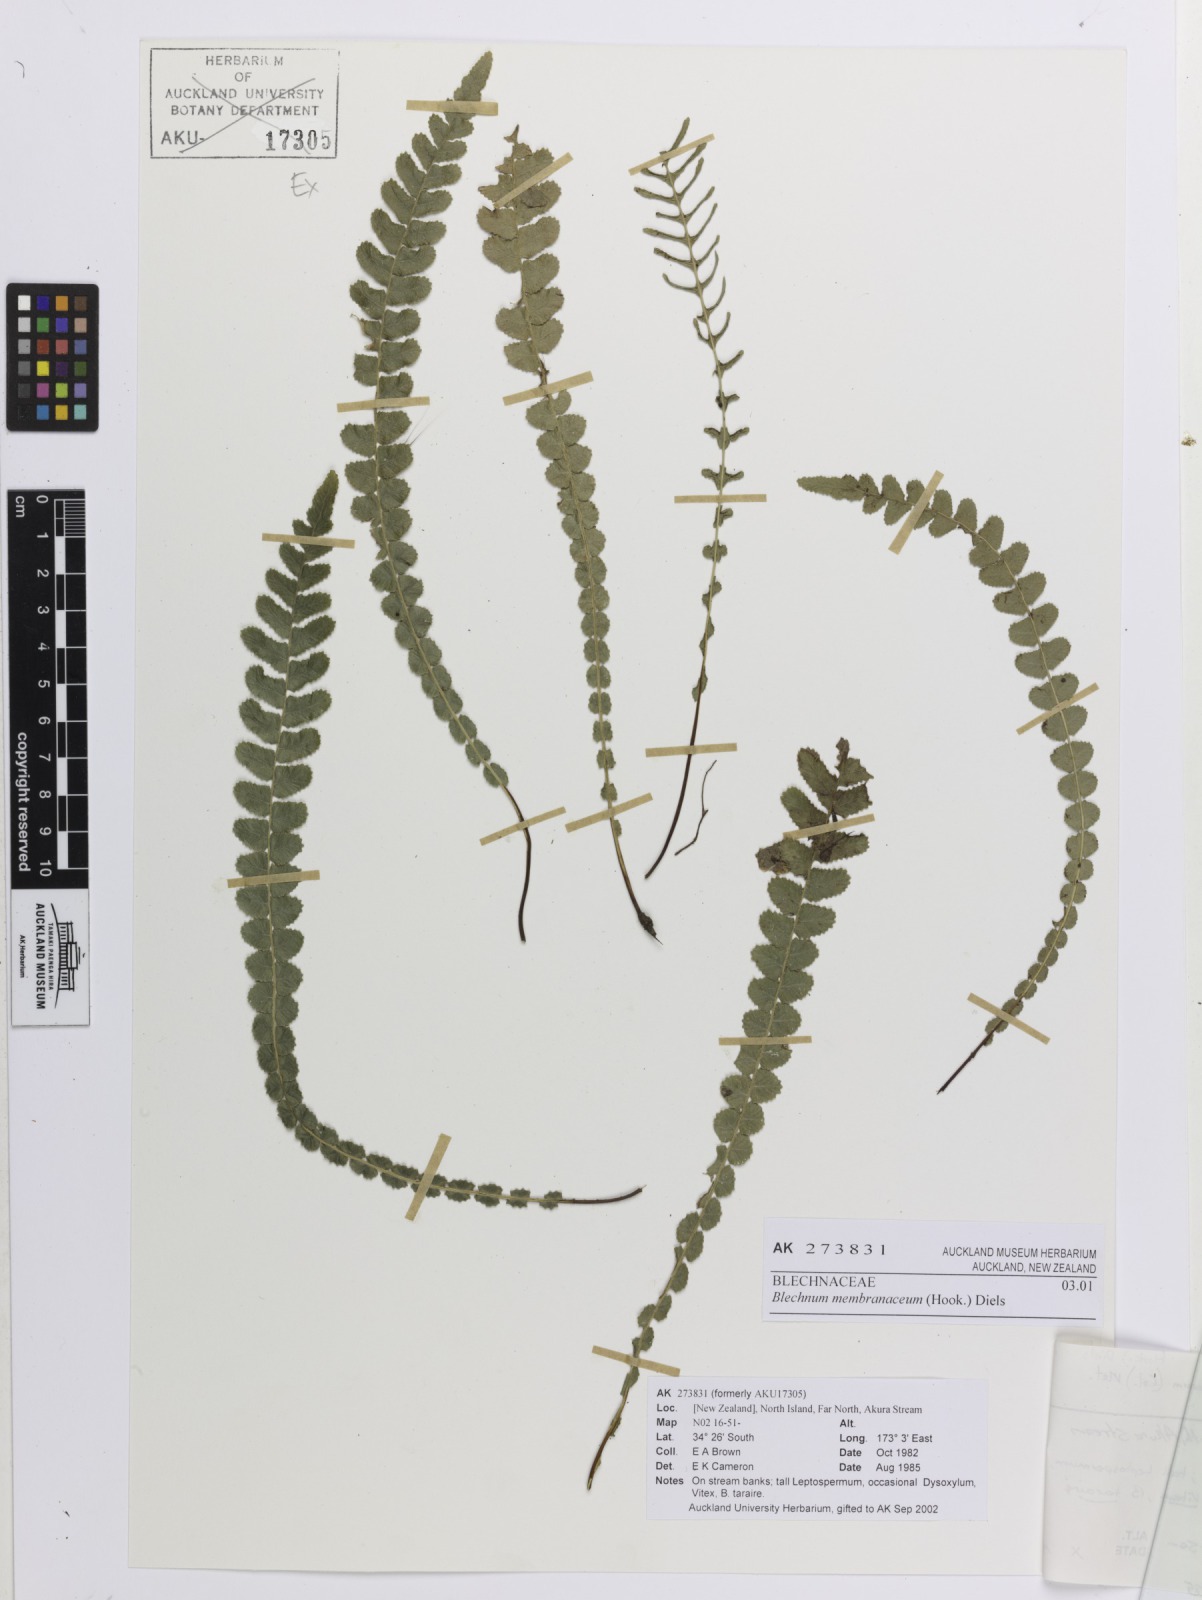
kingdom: Plantae
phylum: Tracheophyta
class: Polypodiopsida
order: Polypodiales
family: Blechnaceae
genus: Austroblechnum
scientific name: Austroblechnum membranaceum
